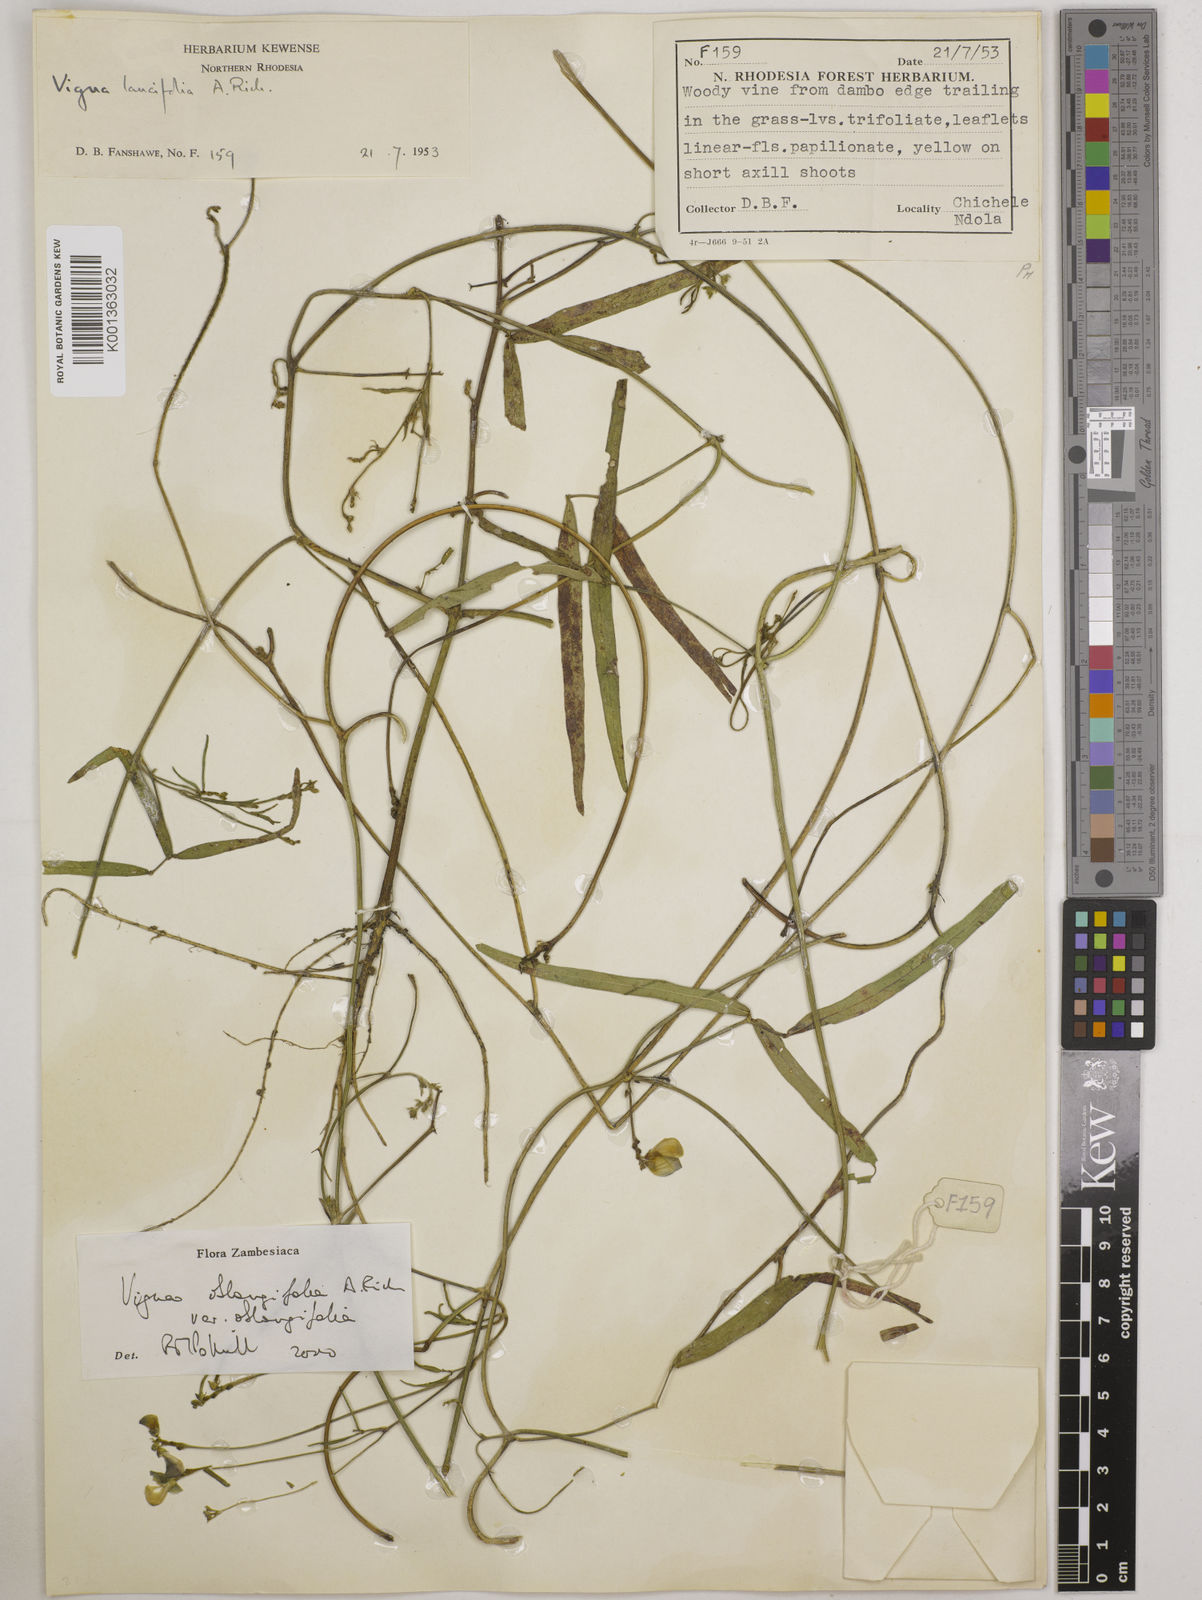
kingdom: Plantae
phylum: Tracheophyta
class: Magnoliopsida
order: Fabales
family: Fabaceae
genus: Vigna
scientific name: Vigna oblongifolia
